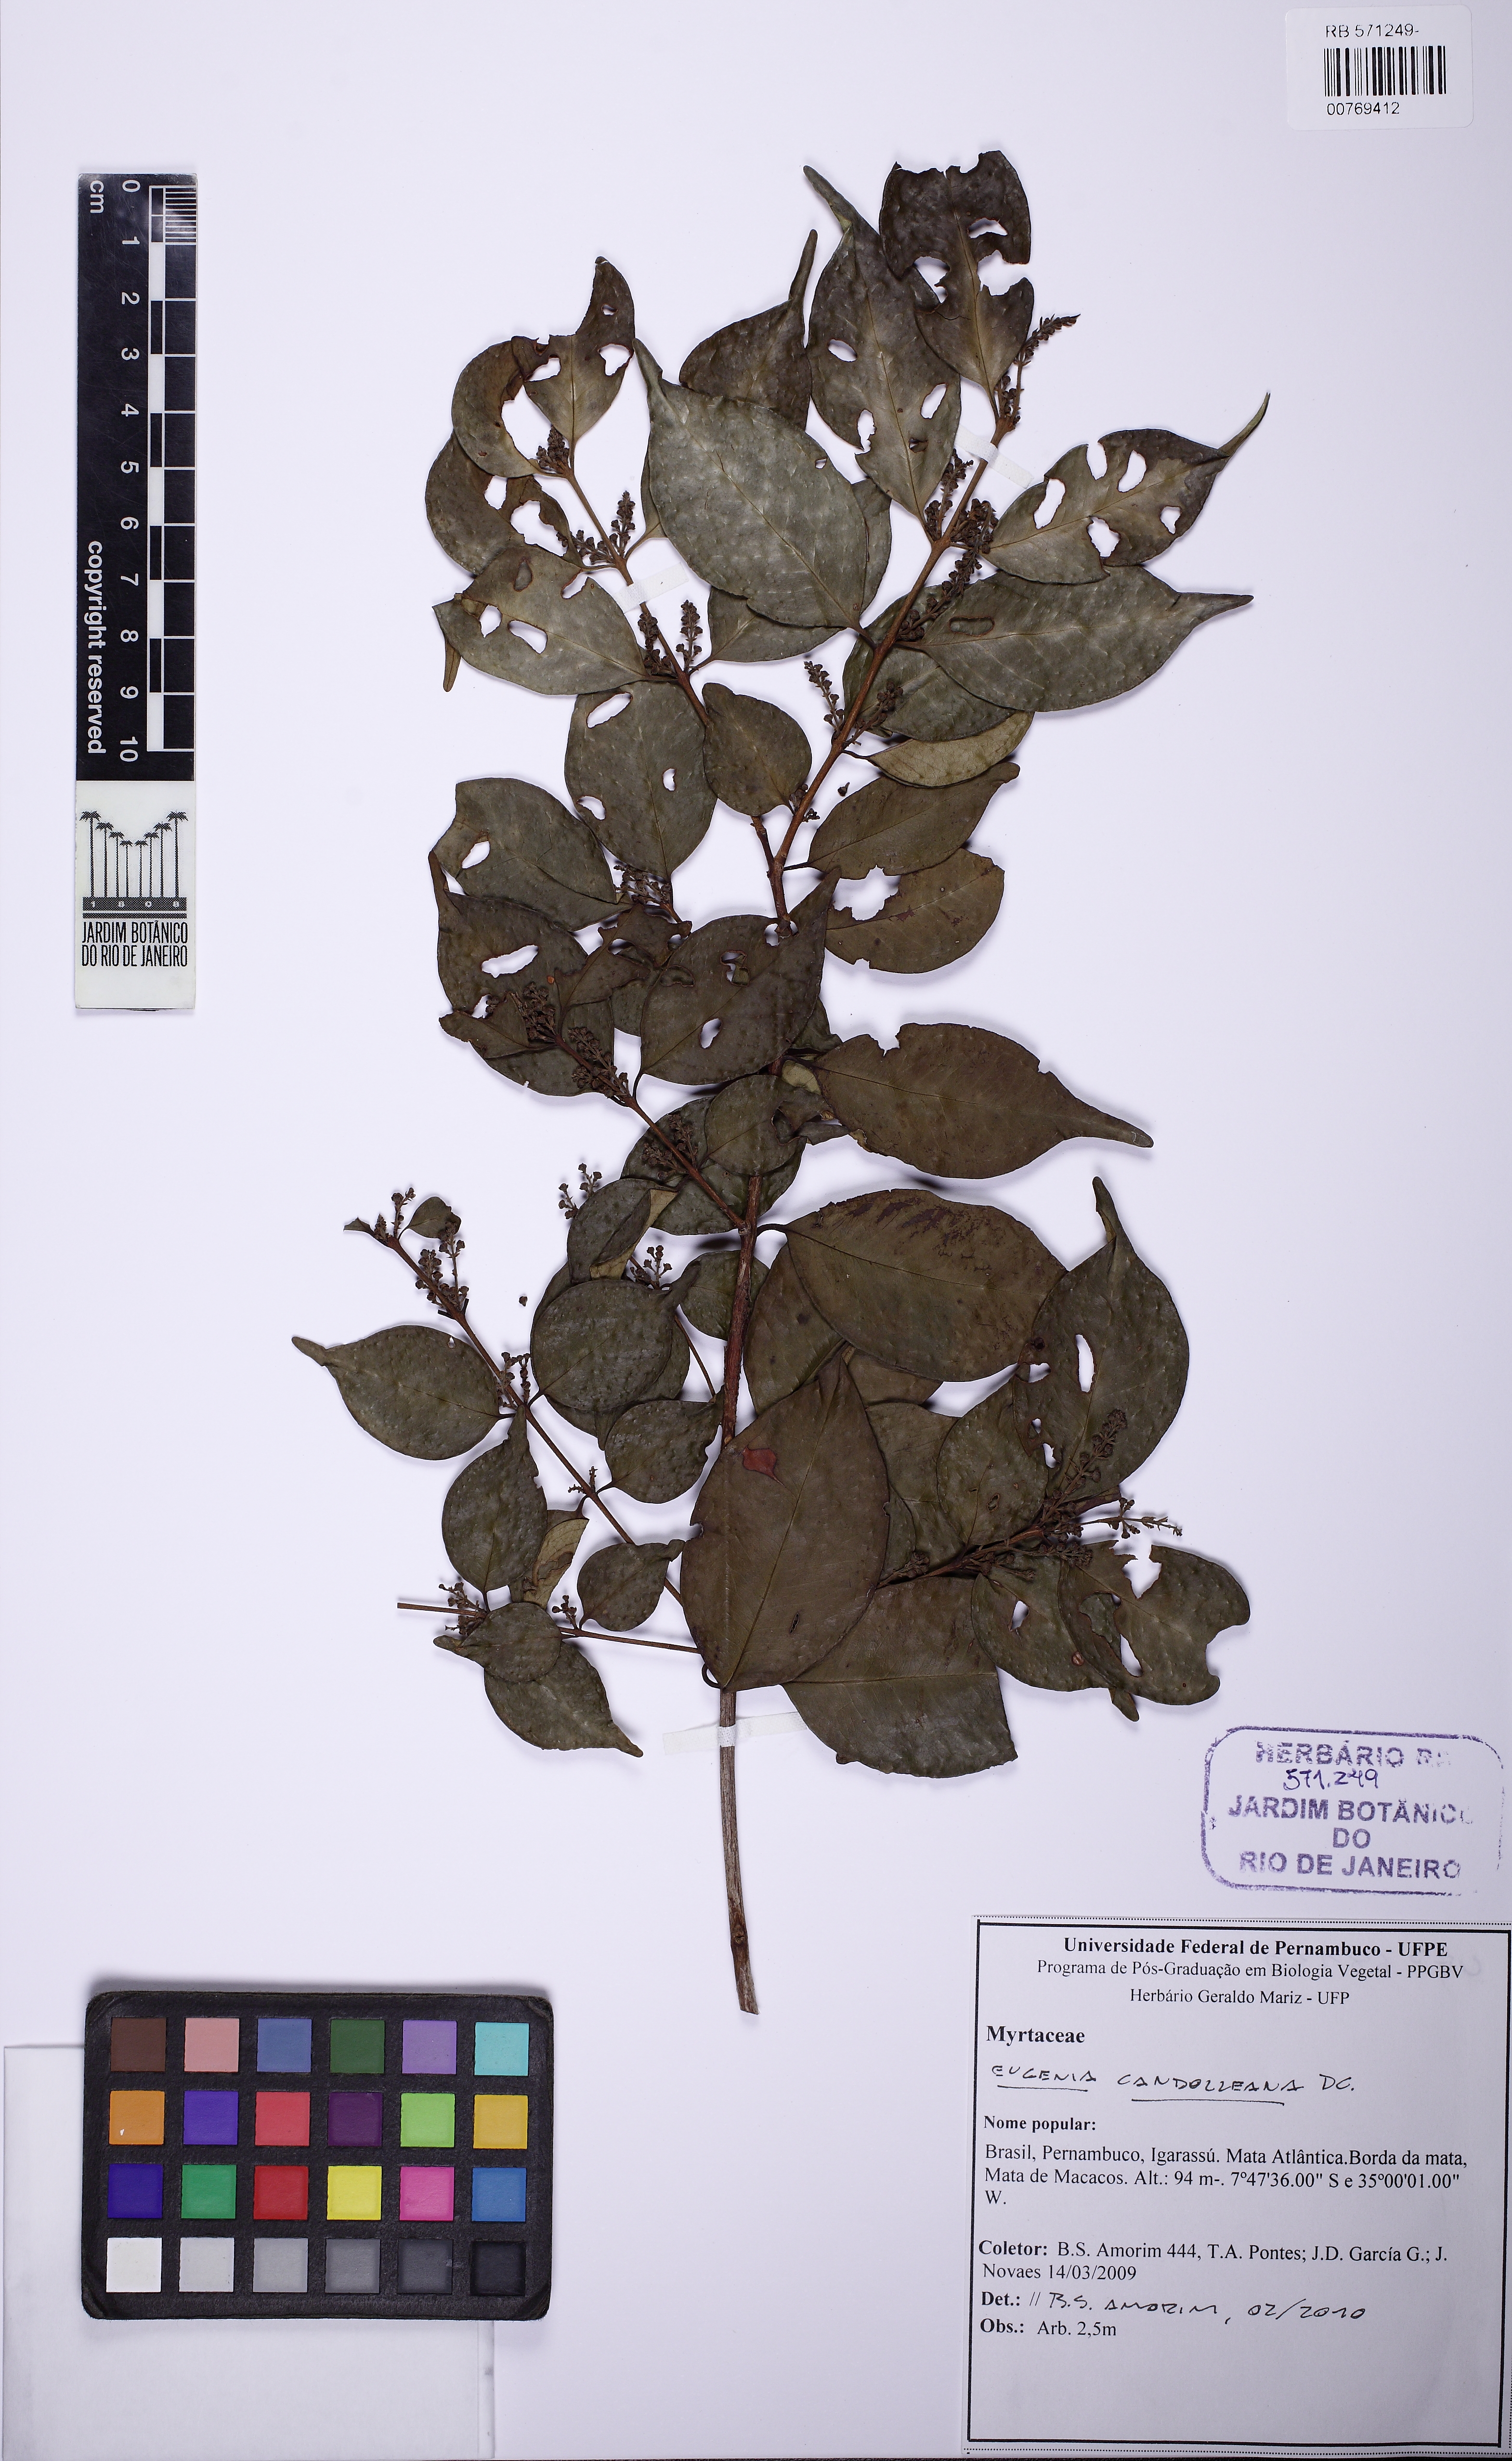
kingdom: Plantae
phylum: Tracheophyta
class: Magnoliopsida
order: Myrtales
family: Myrtaceae
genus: Eugenia
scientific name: Eugenia candolleana
